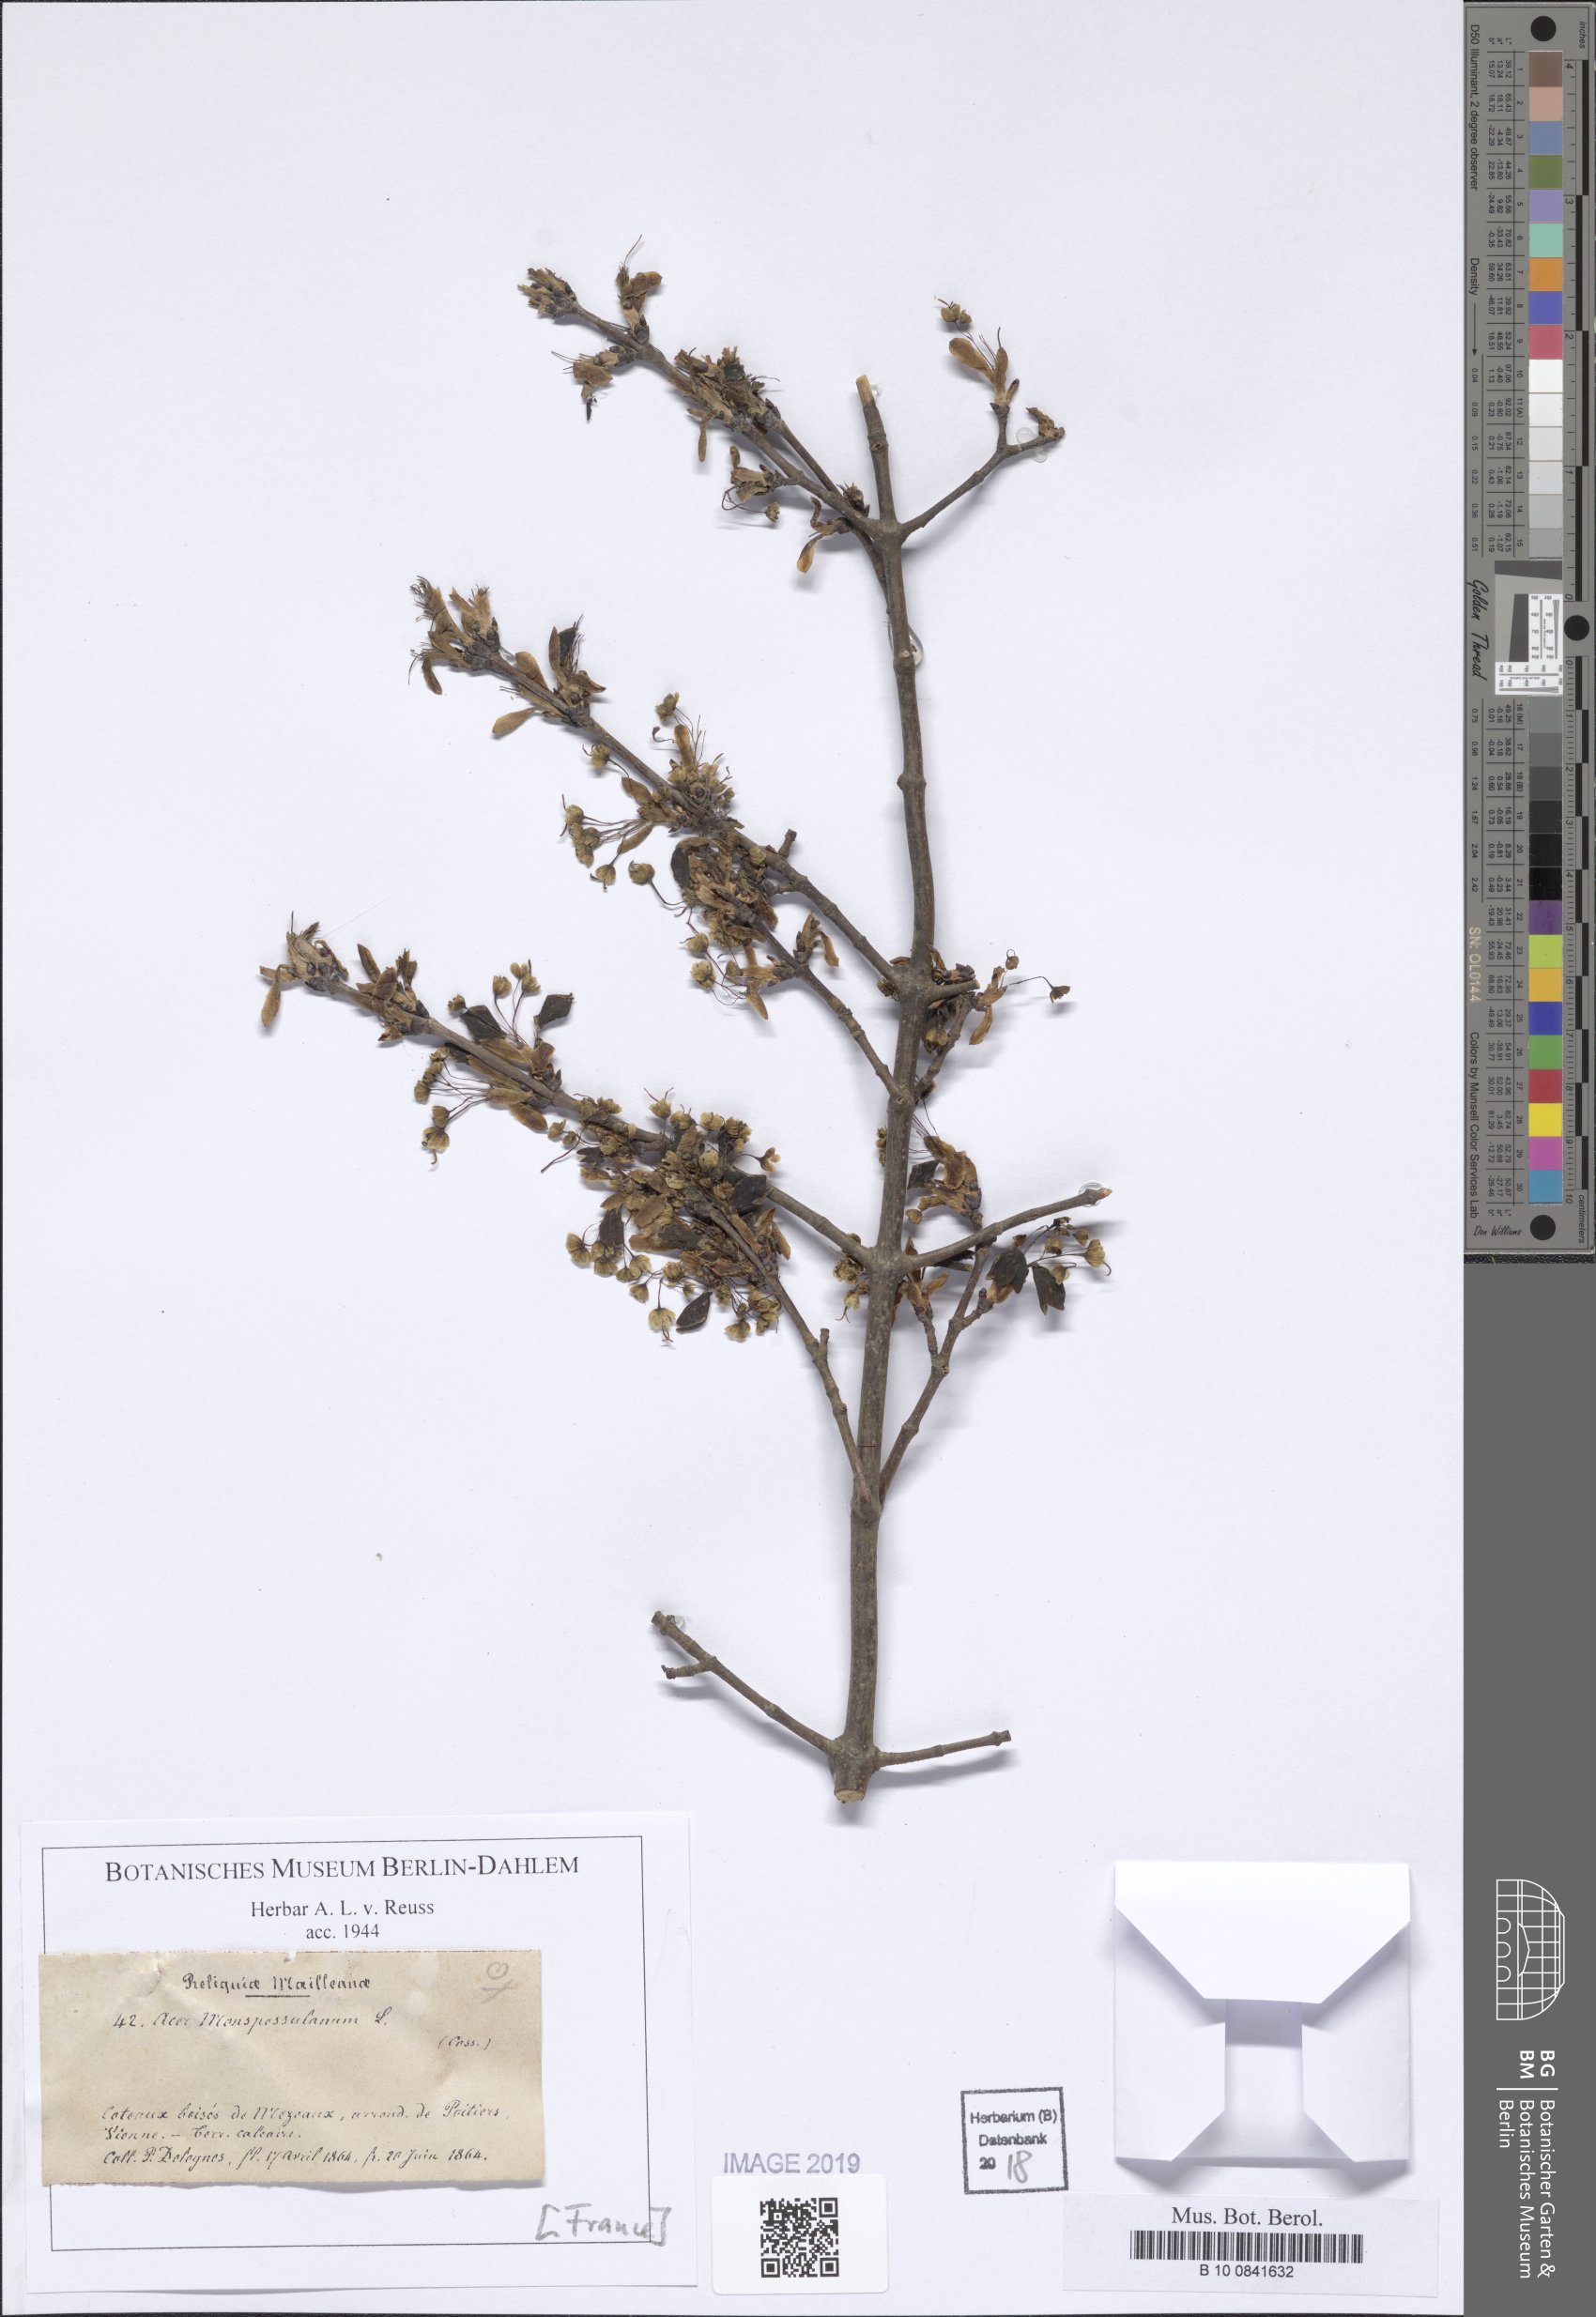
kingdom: Plantae
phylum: Tracheophyta
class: Magnoliopsida
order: Sapindales
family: Sapindaceae
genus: Acer
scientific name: Acer monspessulanum
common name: Montpellier maple
